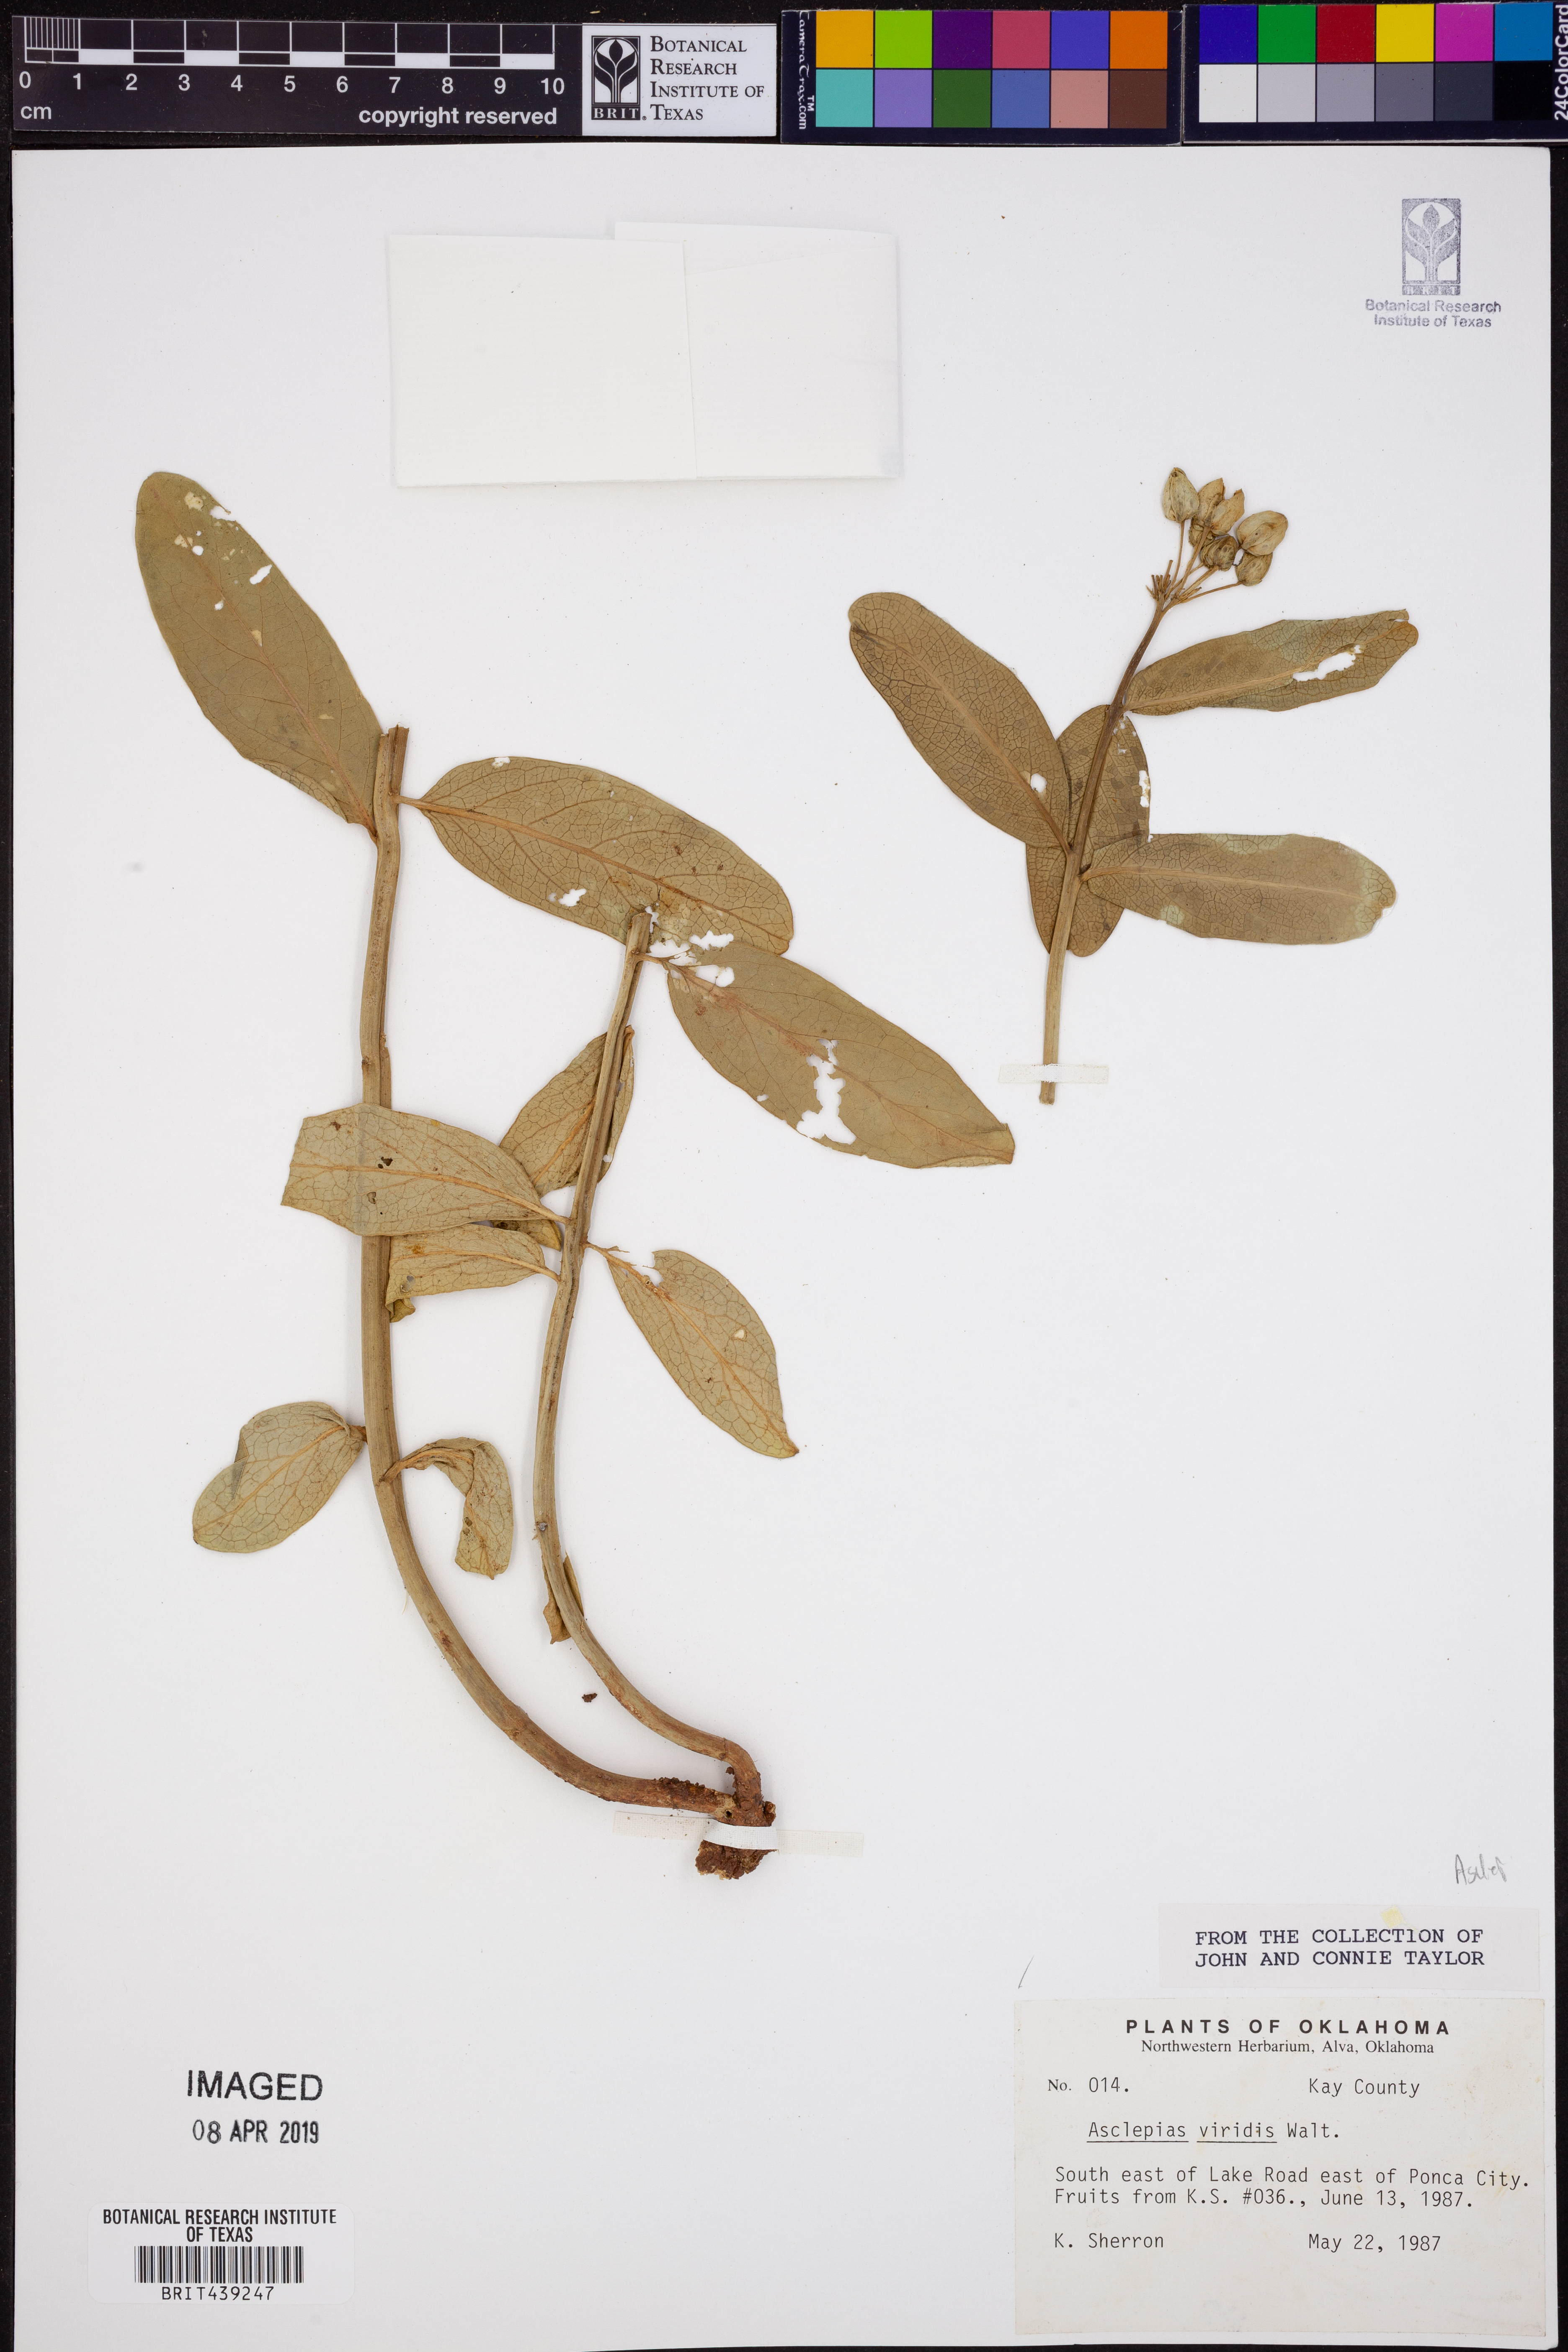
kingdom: Plantae
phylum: Tracheophyta
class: Magnoliopsida
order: Gentianales
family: Apocynaceae
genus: Asclepias
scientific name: Asclepias viridis
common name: Antelope-horns
